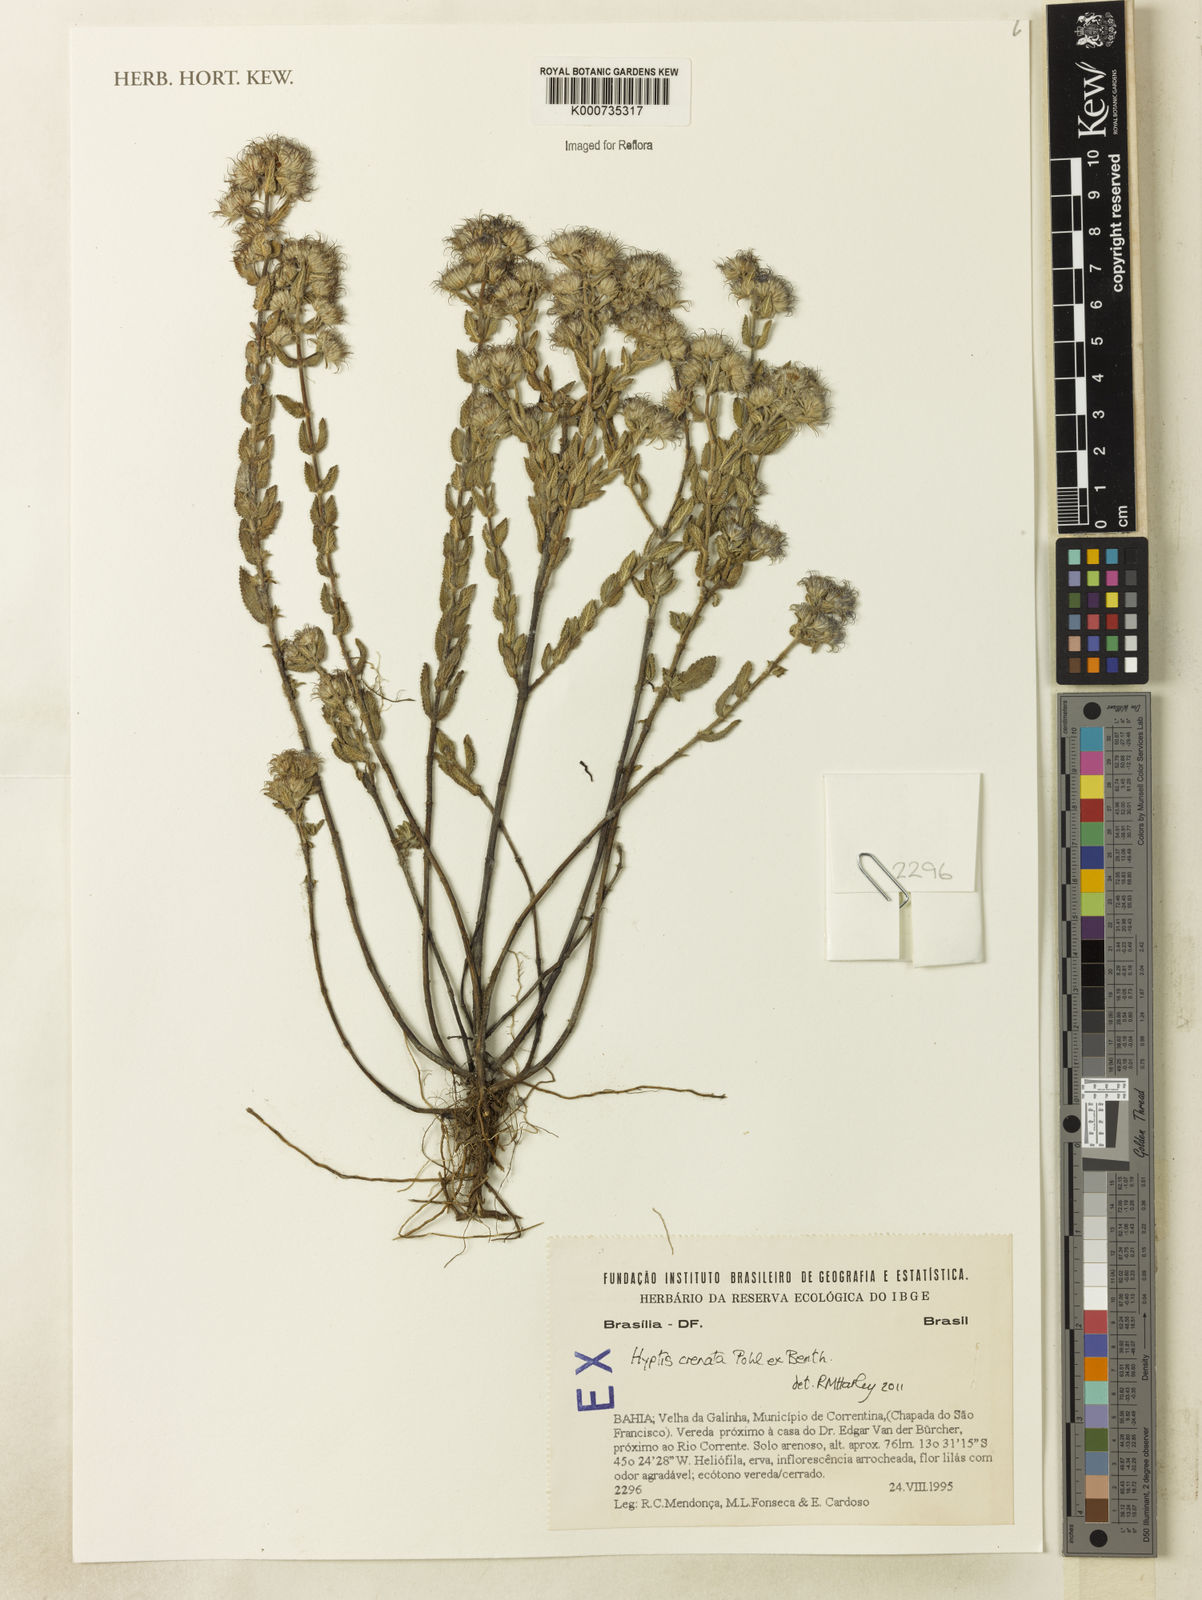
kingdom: Plantae
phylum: Tracheophyta
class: Magnoliopsida
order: Lamiales
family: Lamiaceae
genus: Hyptis
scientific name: Hyptis crenata
